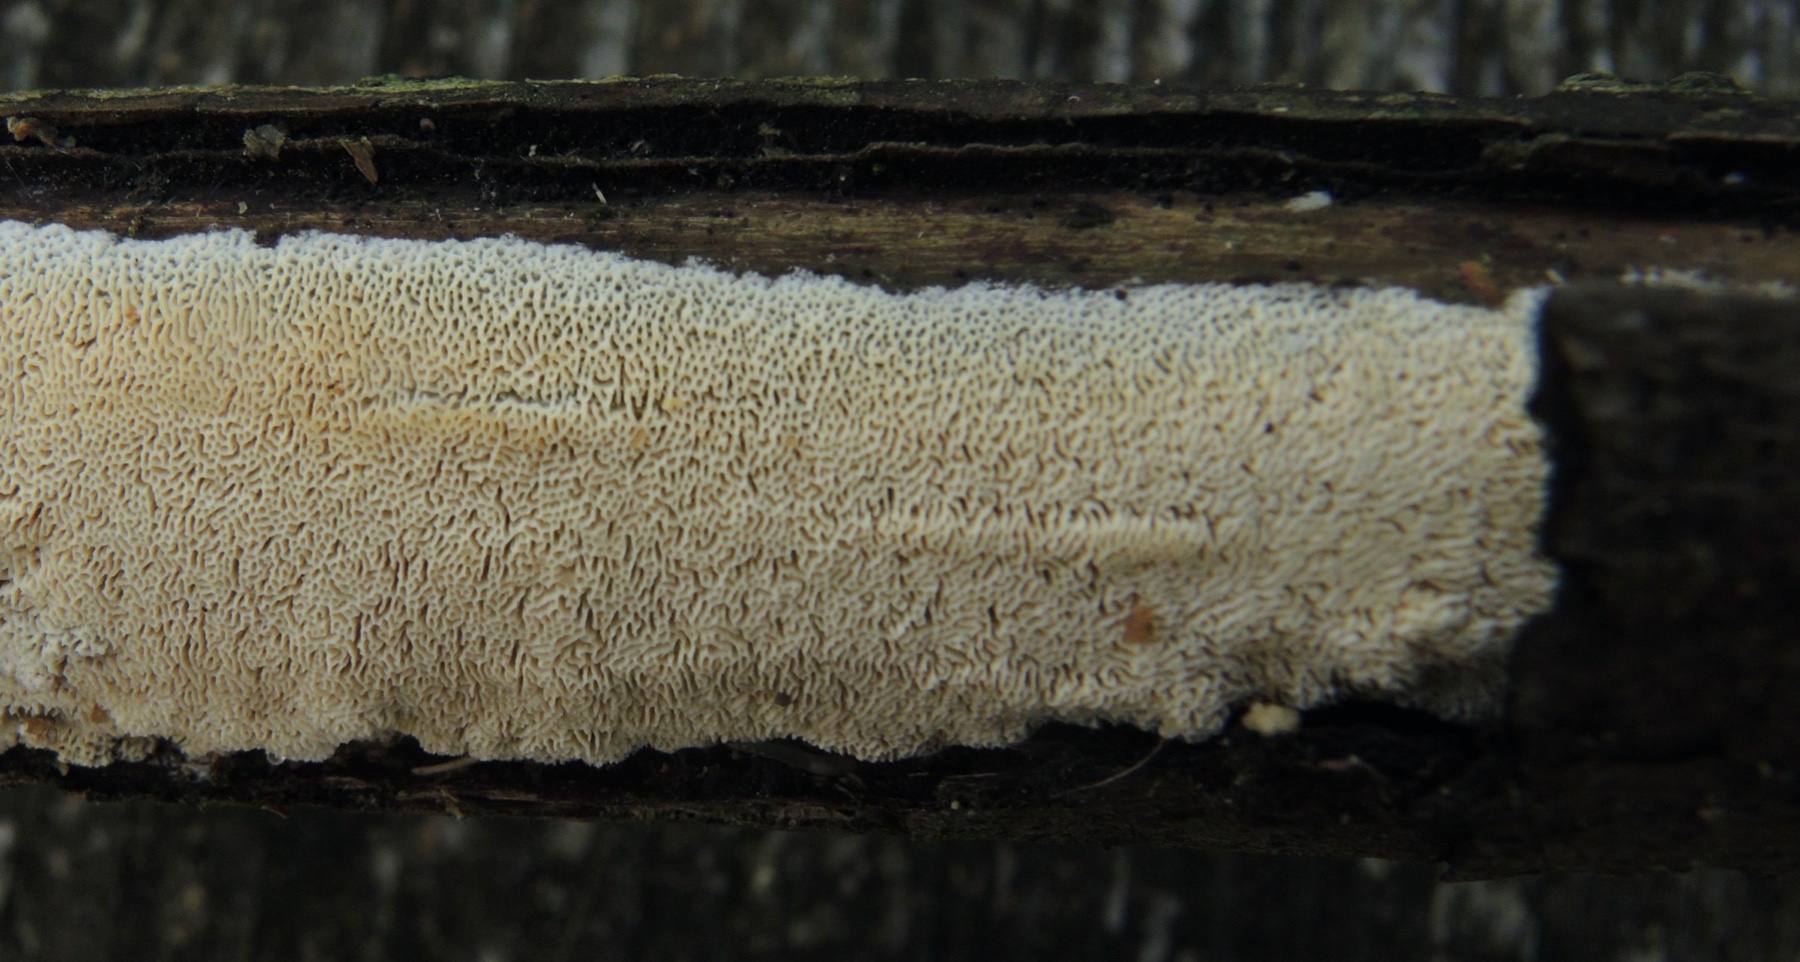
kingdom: Fungi
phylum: Basidiomycota
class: Agaricomycetes
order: Hymenochaetales
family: Schizoporaceae
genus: Xylodon
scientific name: Xylodon subtropicus
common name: labyrint-tandsvamp
